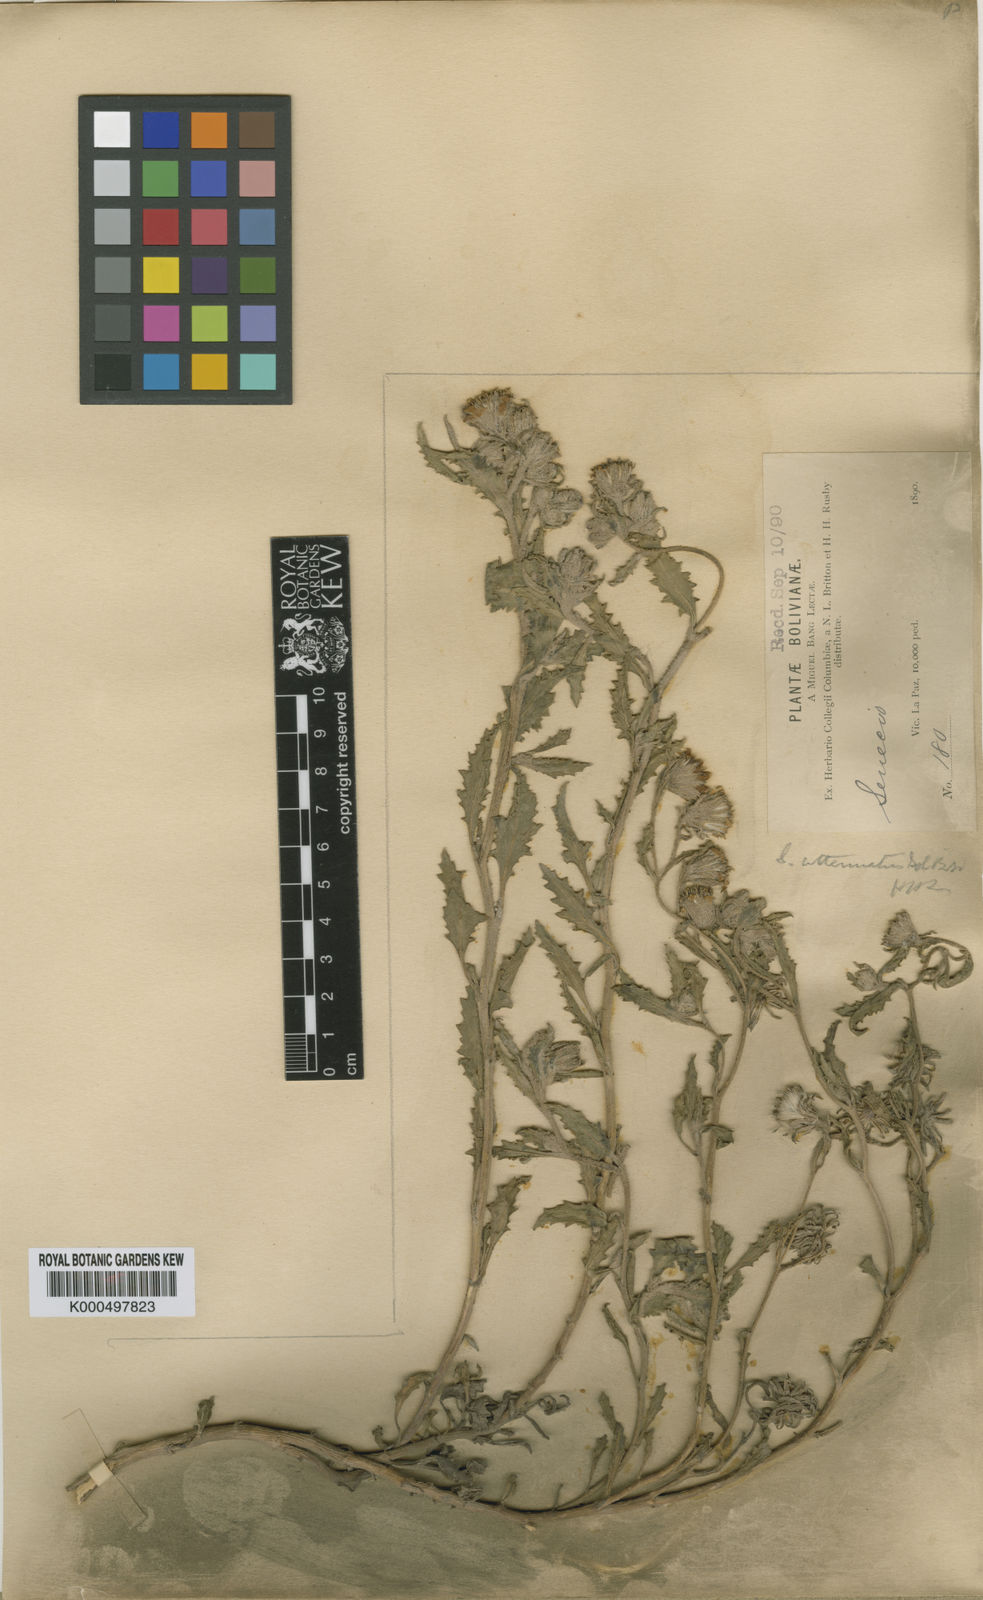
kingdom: Plantae
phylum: Tracheophyta
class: Magnoliopsida
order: Asterales
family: Asteraceae
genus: Senecio
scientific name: Senecio
